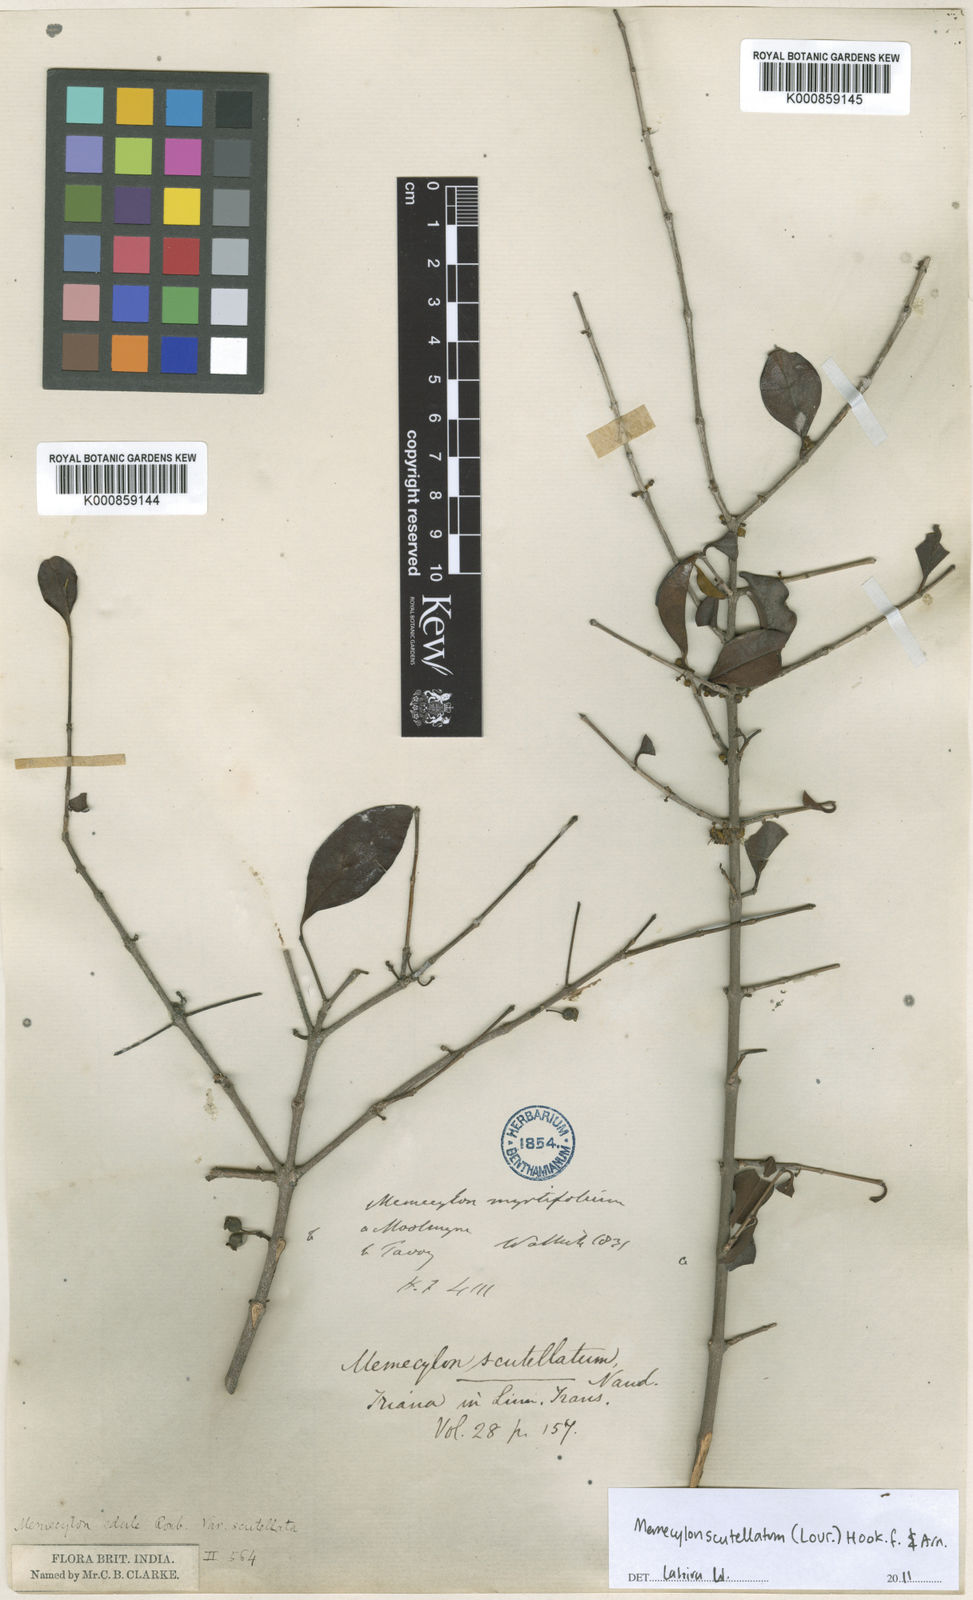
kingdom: Plantae
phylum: Tracheophyta
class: Magnoliopsida
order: Myrtales
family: Melastomataceae
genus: Memecylon
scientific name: Memecylon scutellatum
